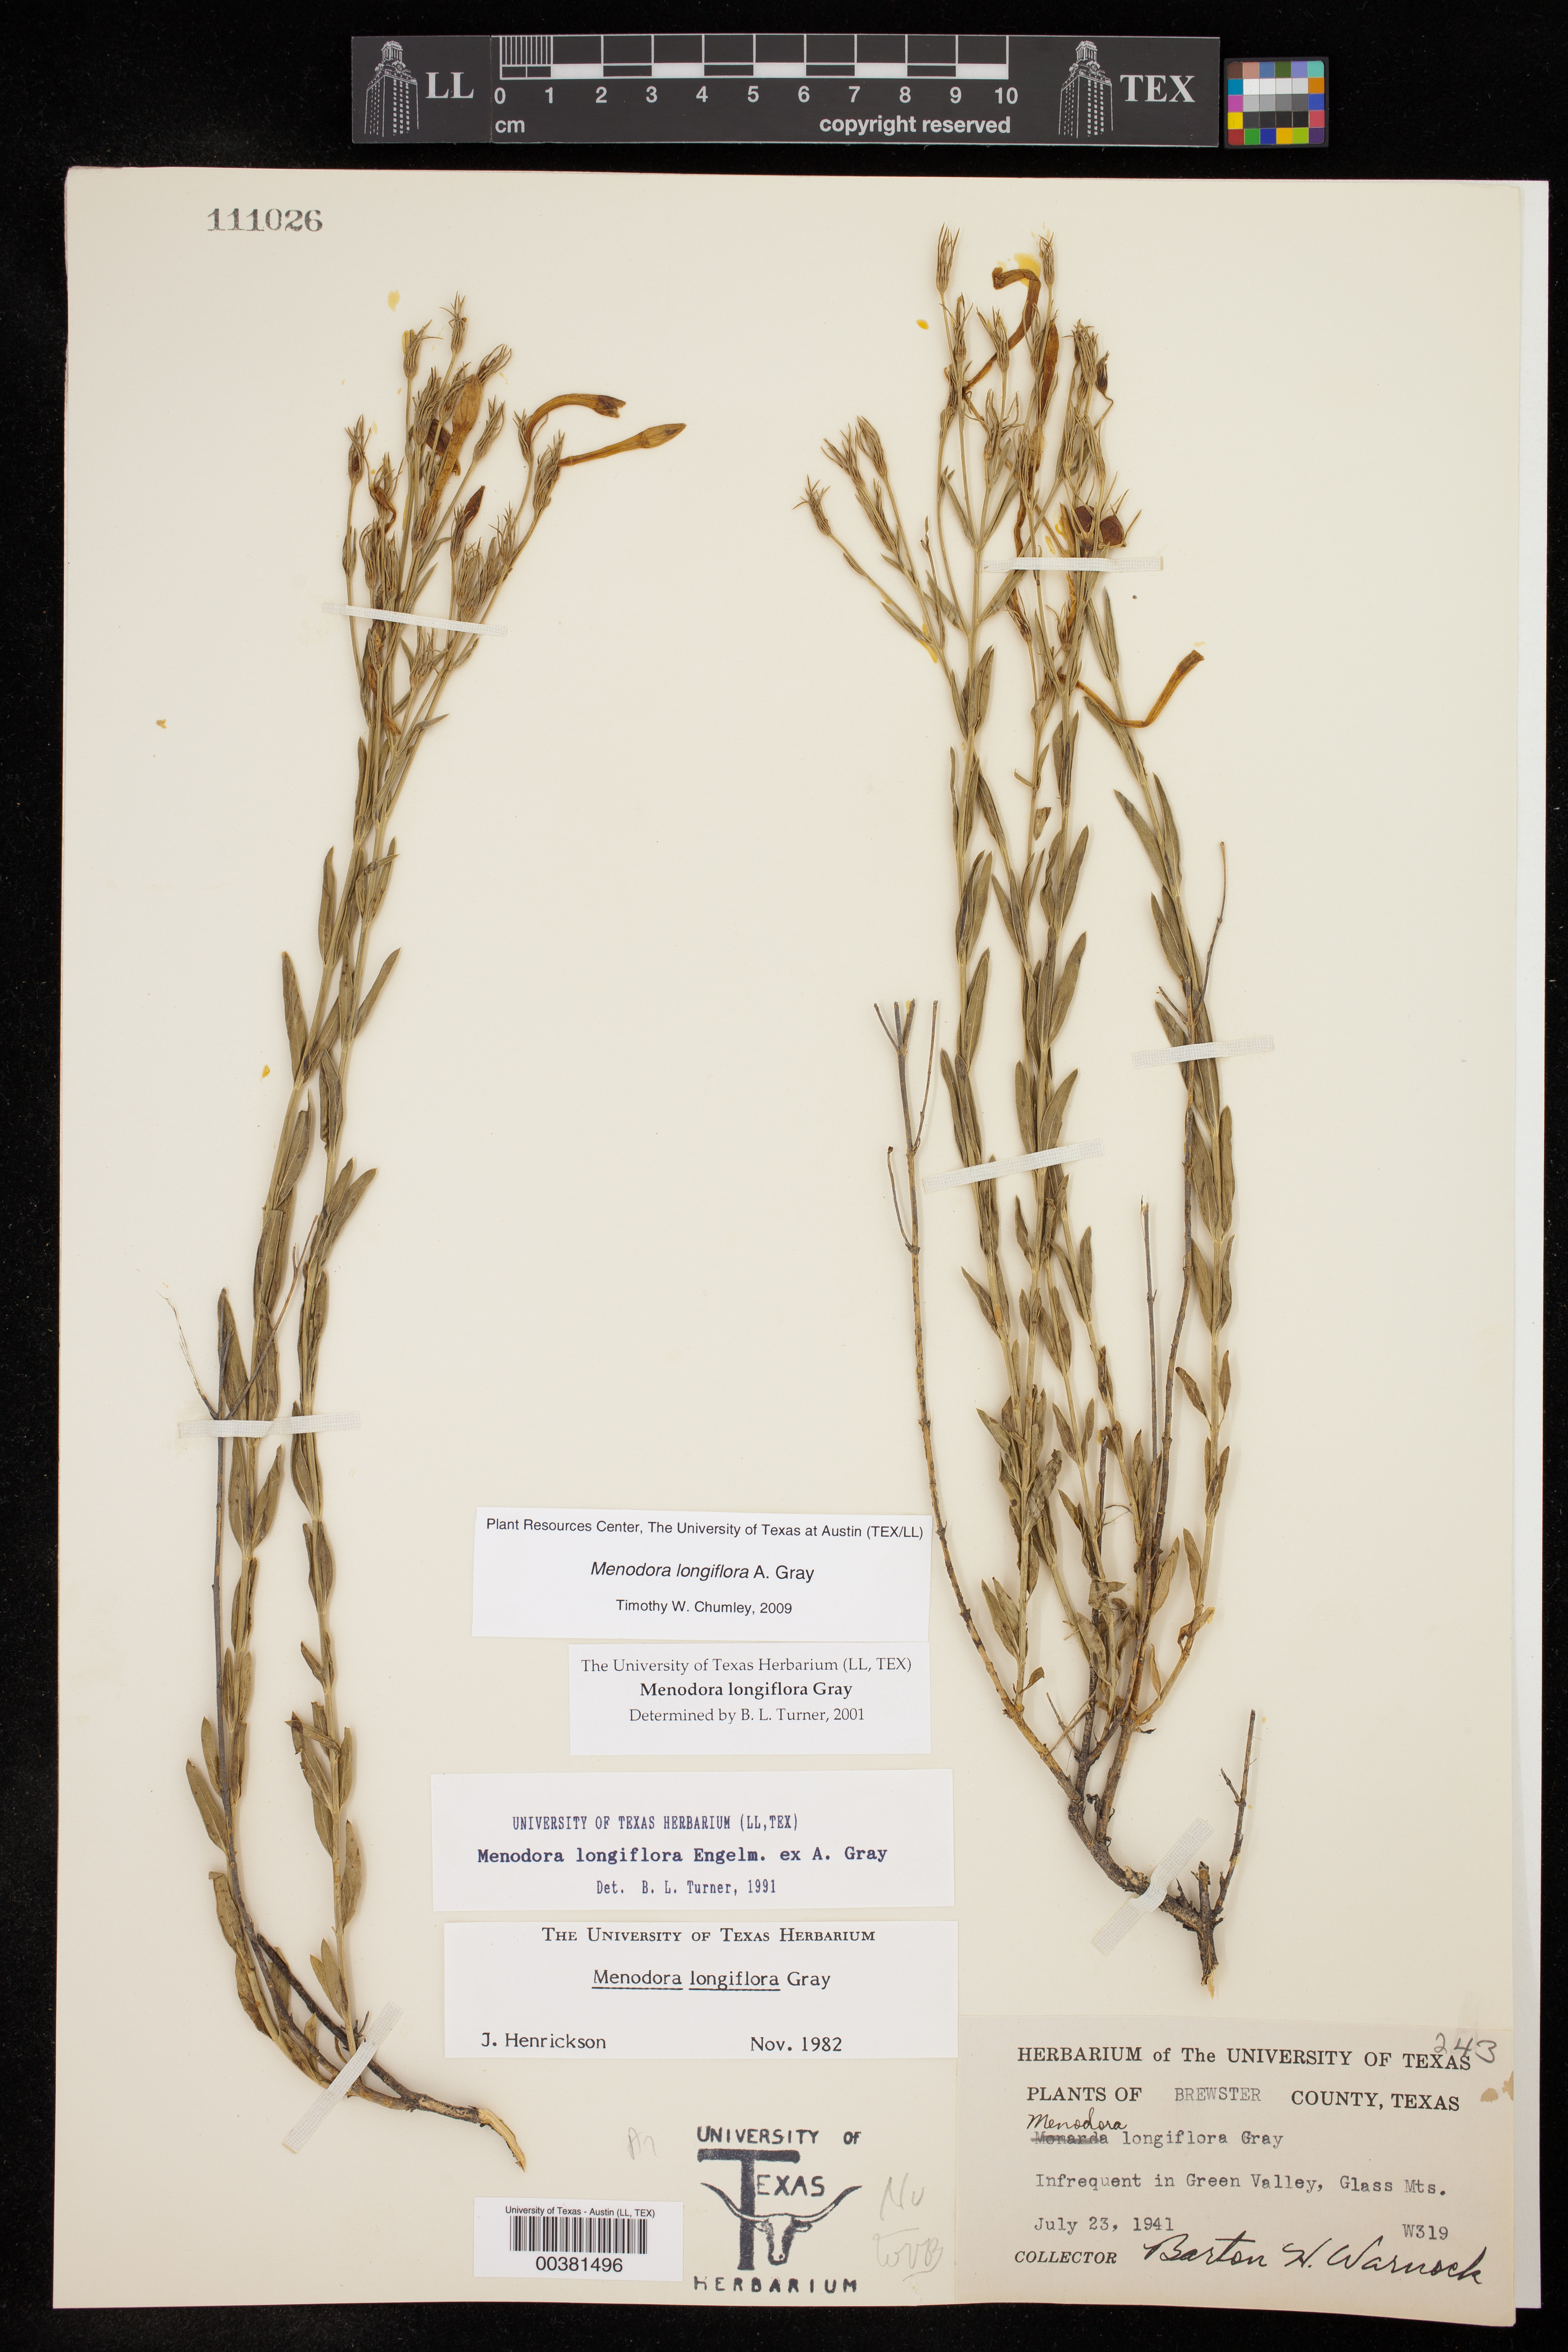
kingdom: Plantae
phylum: Tracheophyta
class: Magnoliopsida
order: Lamiales
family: Oleaceae
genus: Menodora
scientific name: Menodora longiflora
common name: Showy menodora
